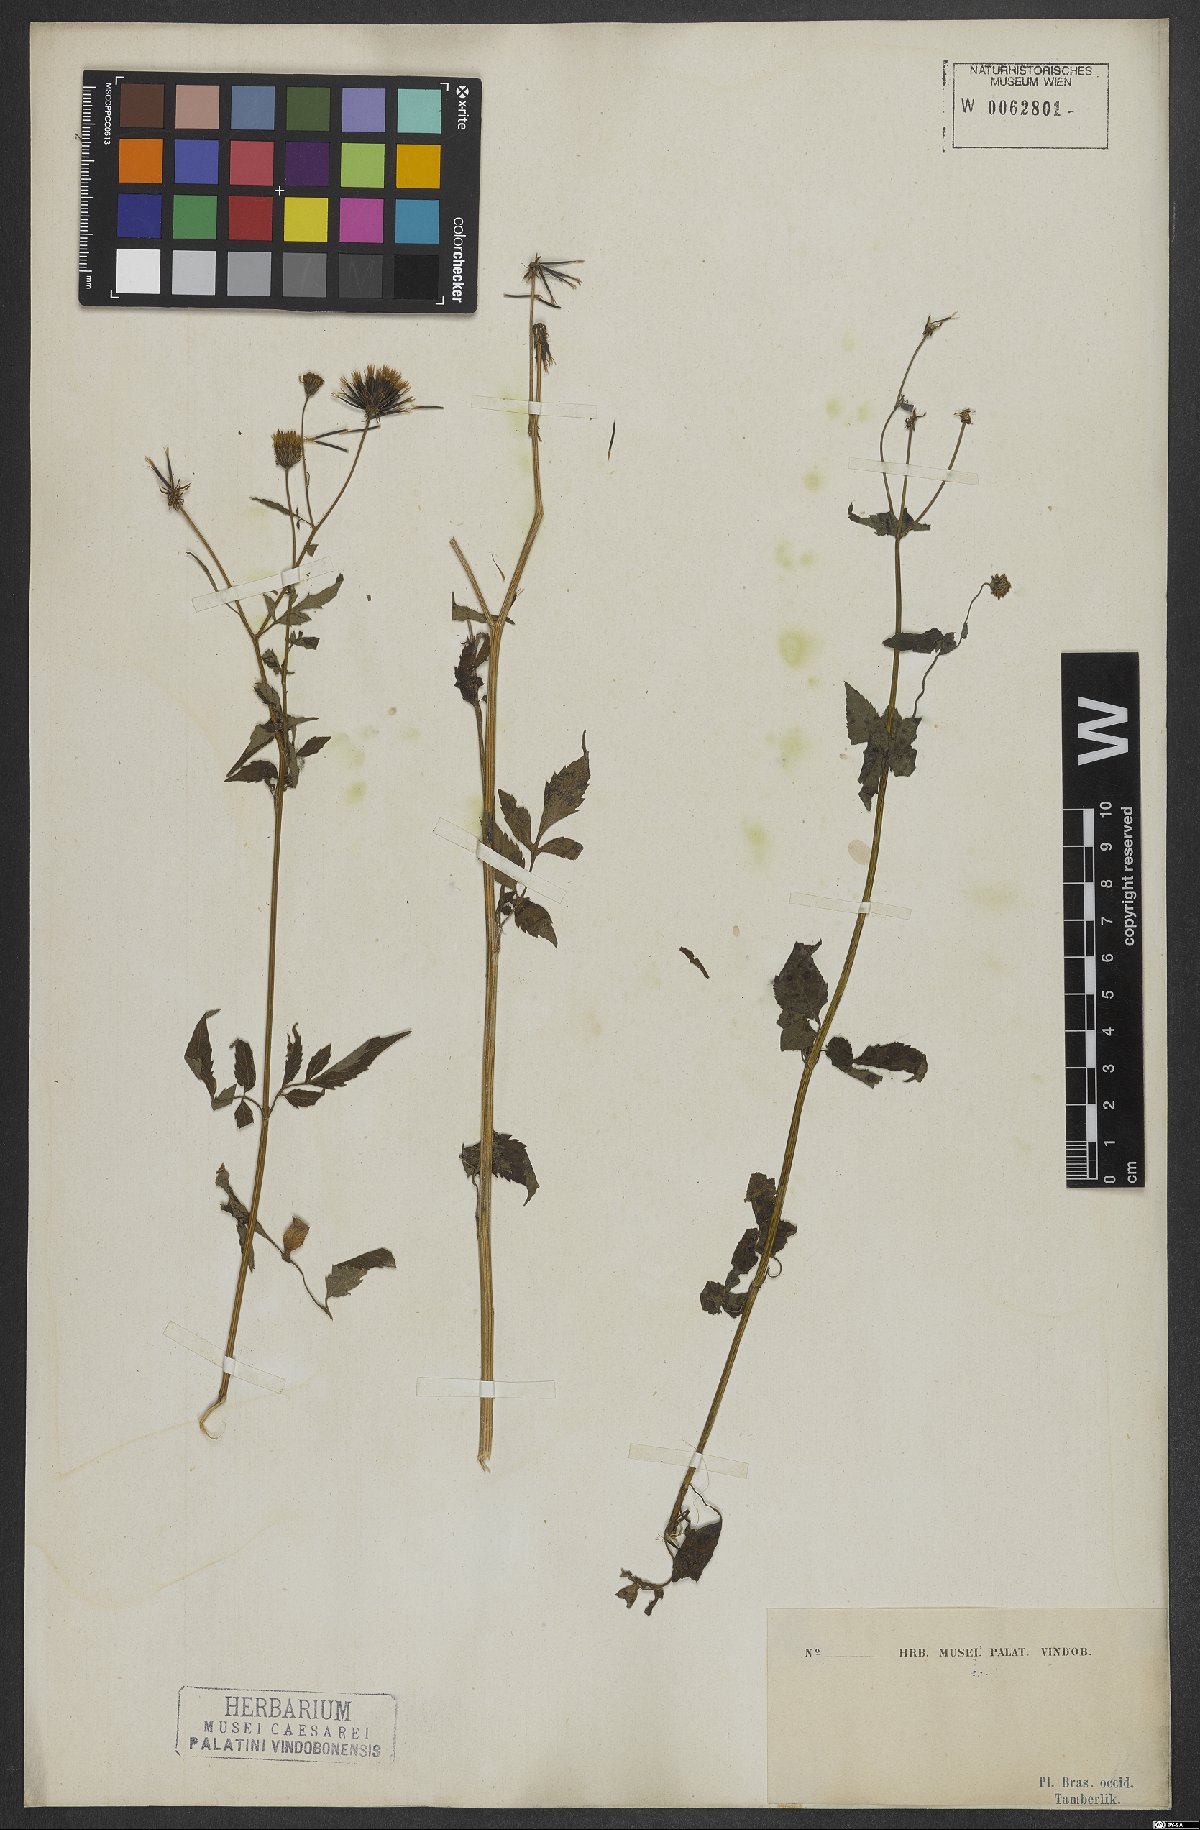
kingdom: Plantae
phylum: Tracheophyta
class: Magnoliopsida
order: Asterales
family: Asteraceae
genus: Bidens
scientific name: Bidens pilosa
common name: Black-jack
